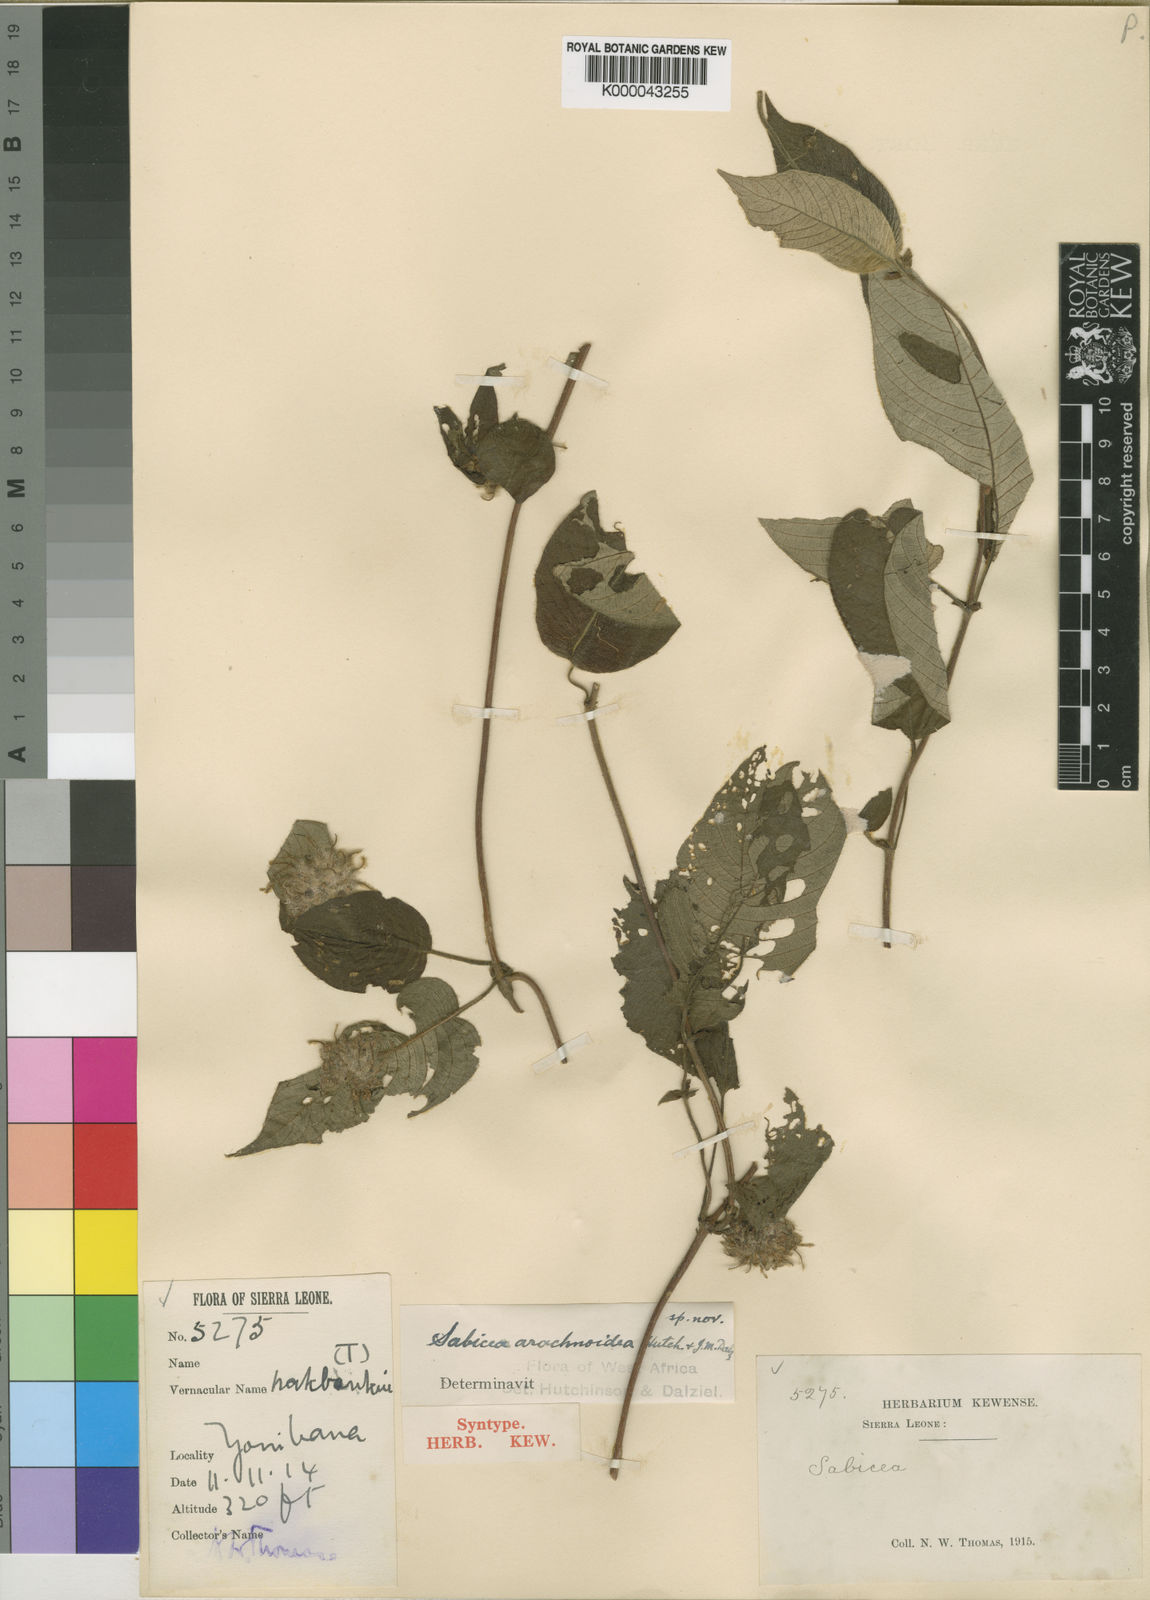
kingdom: Plantae
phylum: Tracheophyta
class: Magnoliopsida
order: Gentianales
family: Rubiaceae
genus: Sabicea
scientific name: Sabicea discolor
